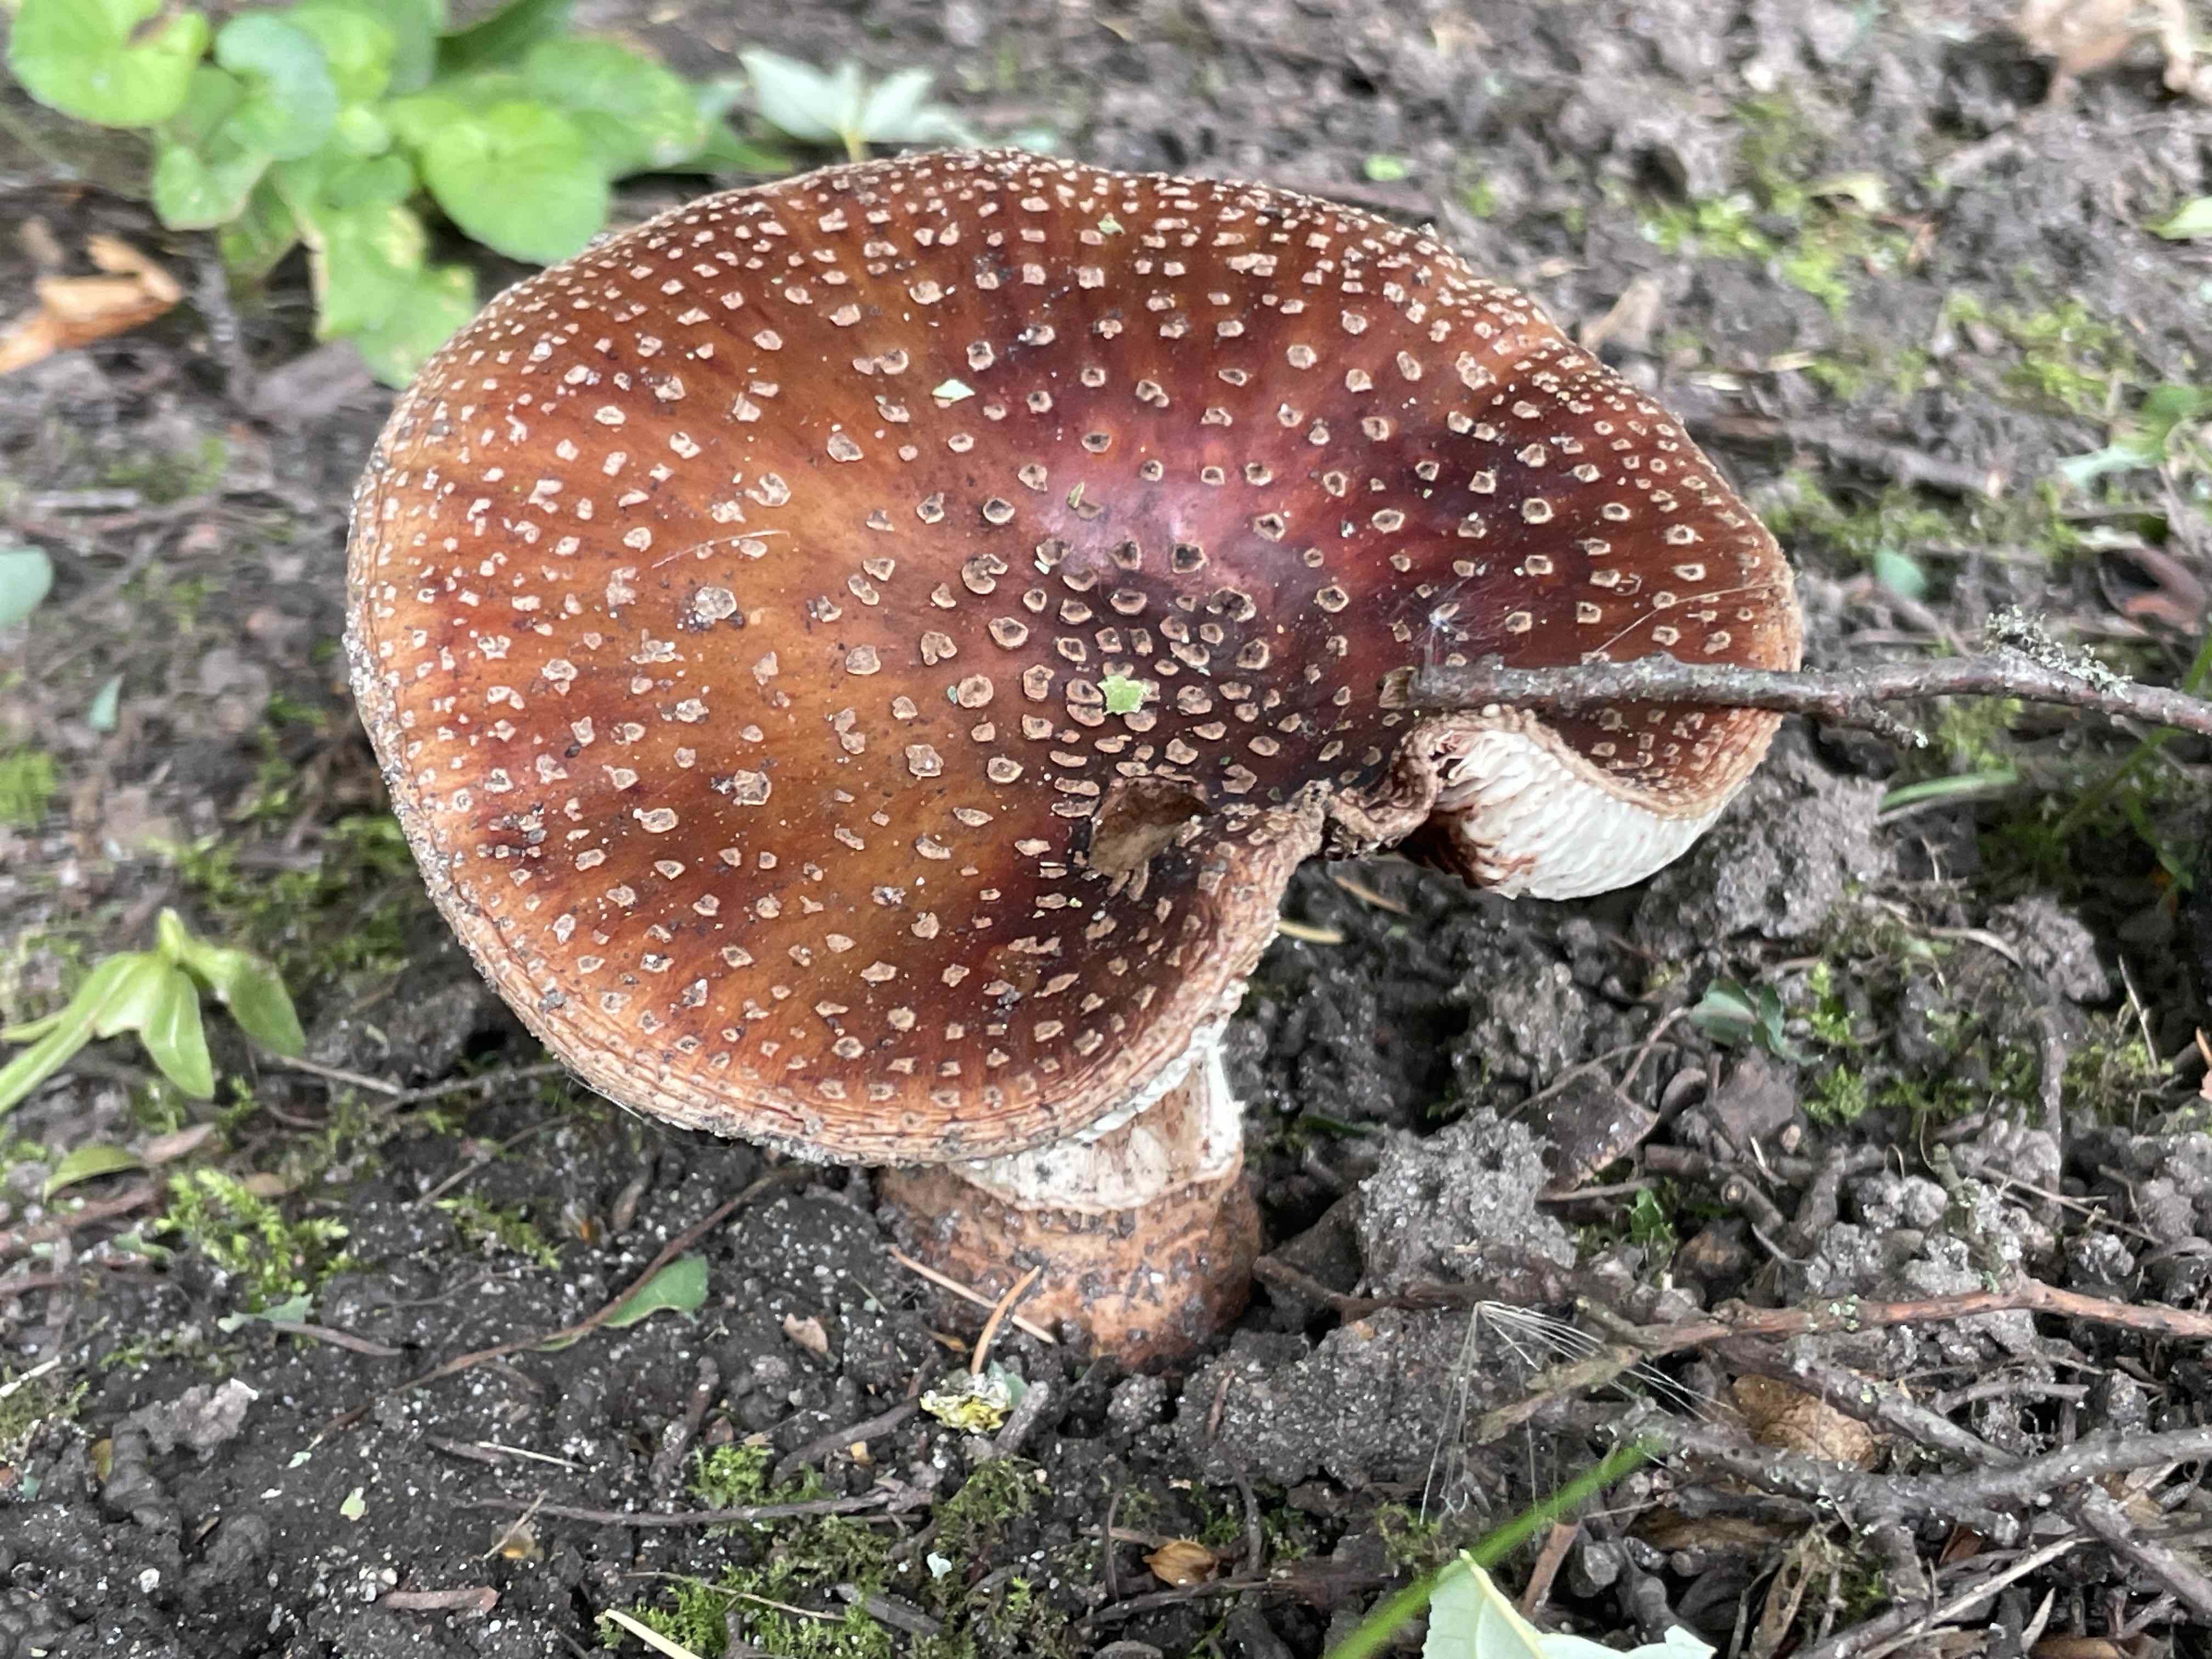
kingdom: Fungi
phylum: Basidiomycota
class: Agaricomycetes
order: Agaricales
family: Amanitaceae
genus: Amanita
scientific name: Amanita rubescens
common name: rødmende fluesvamp
